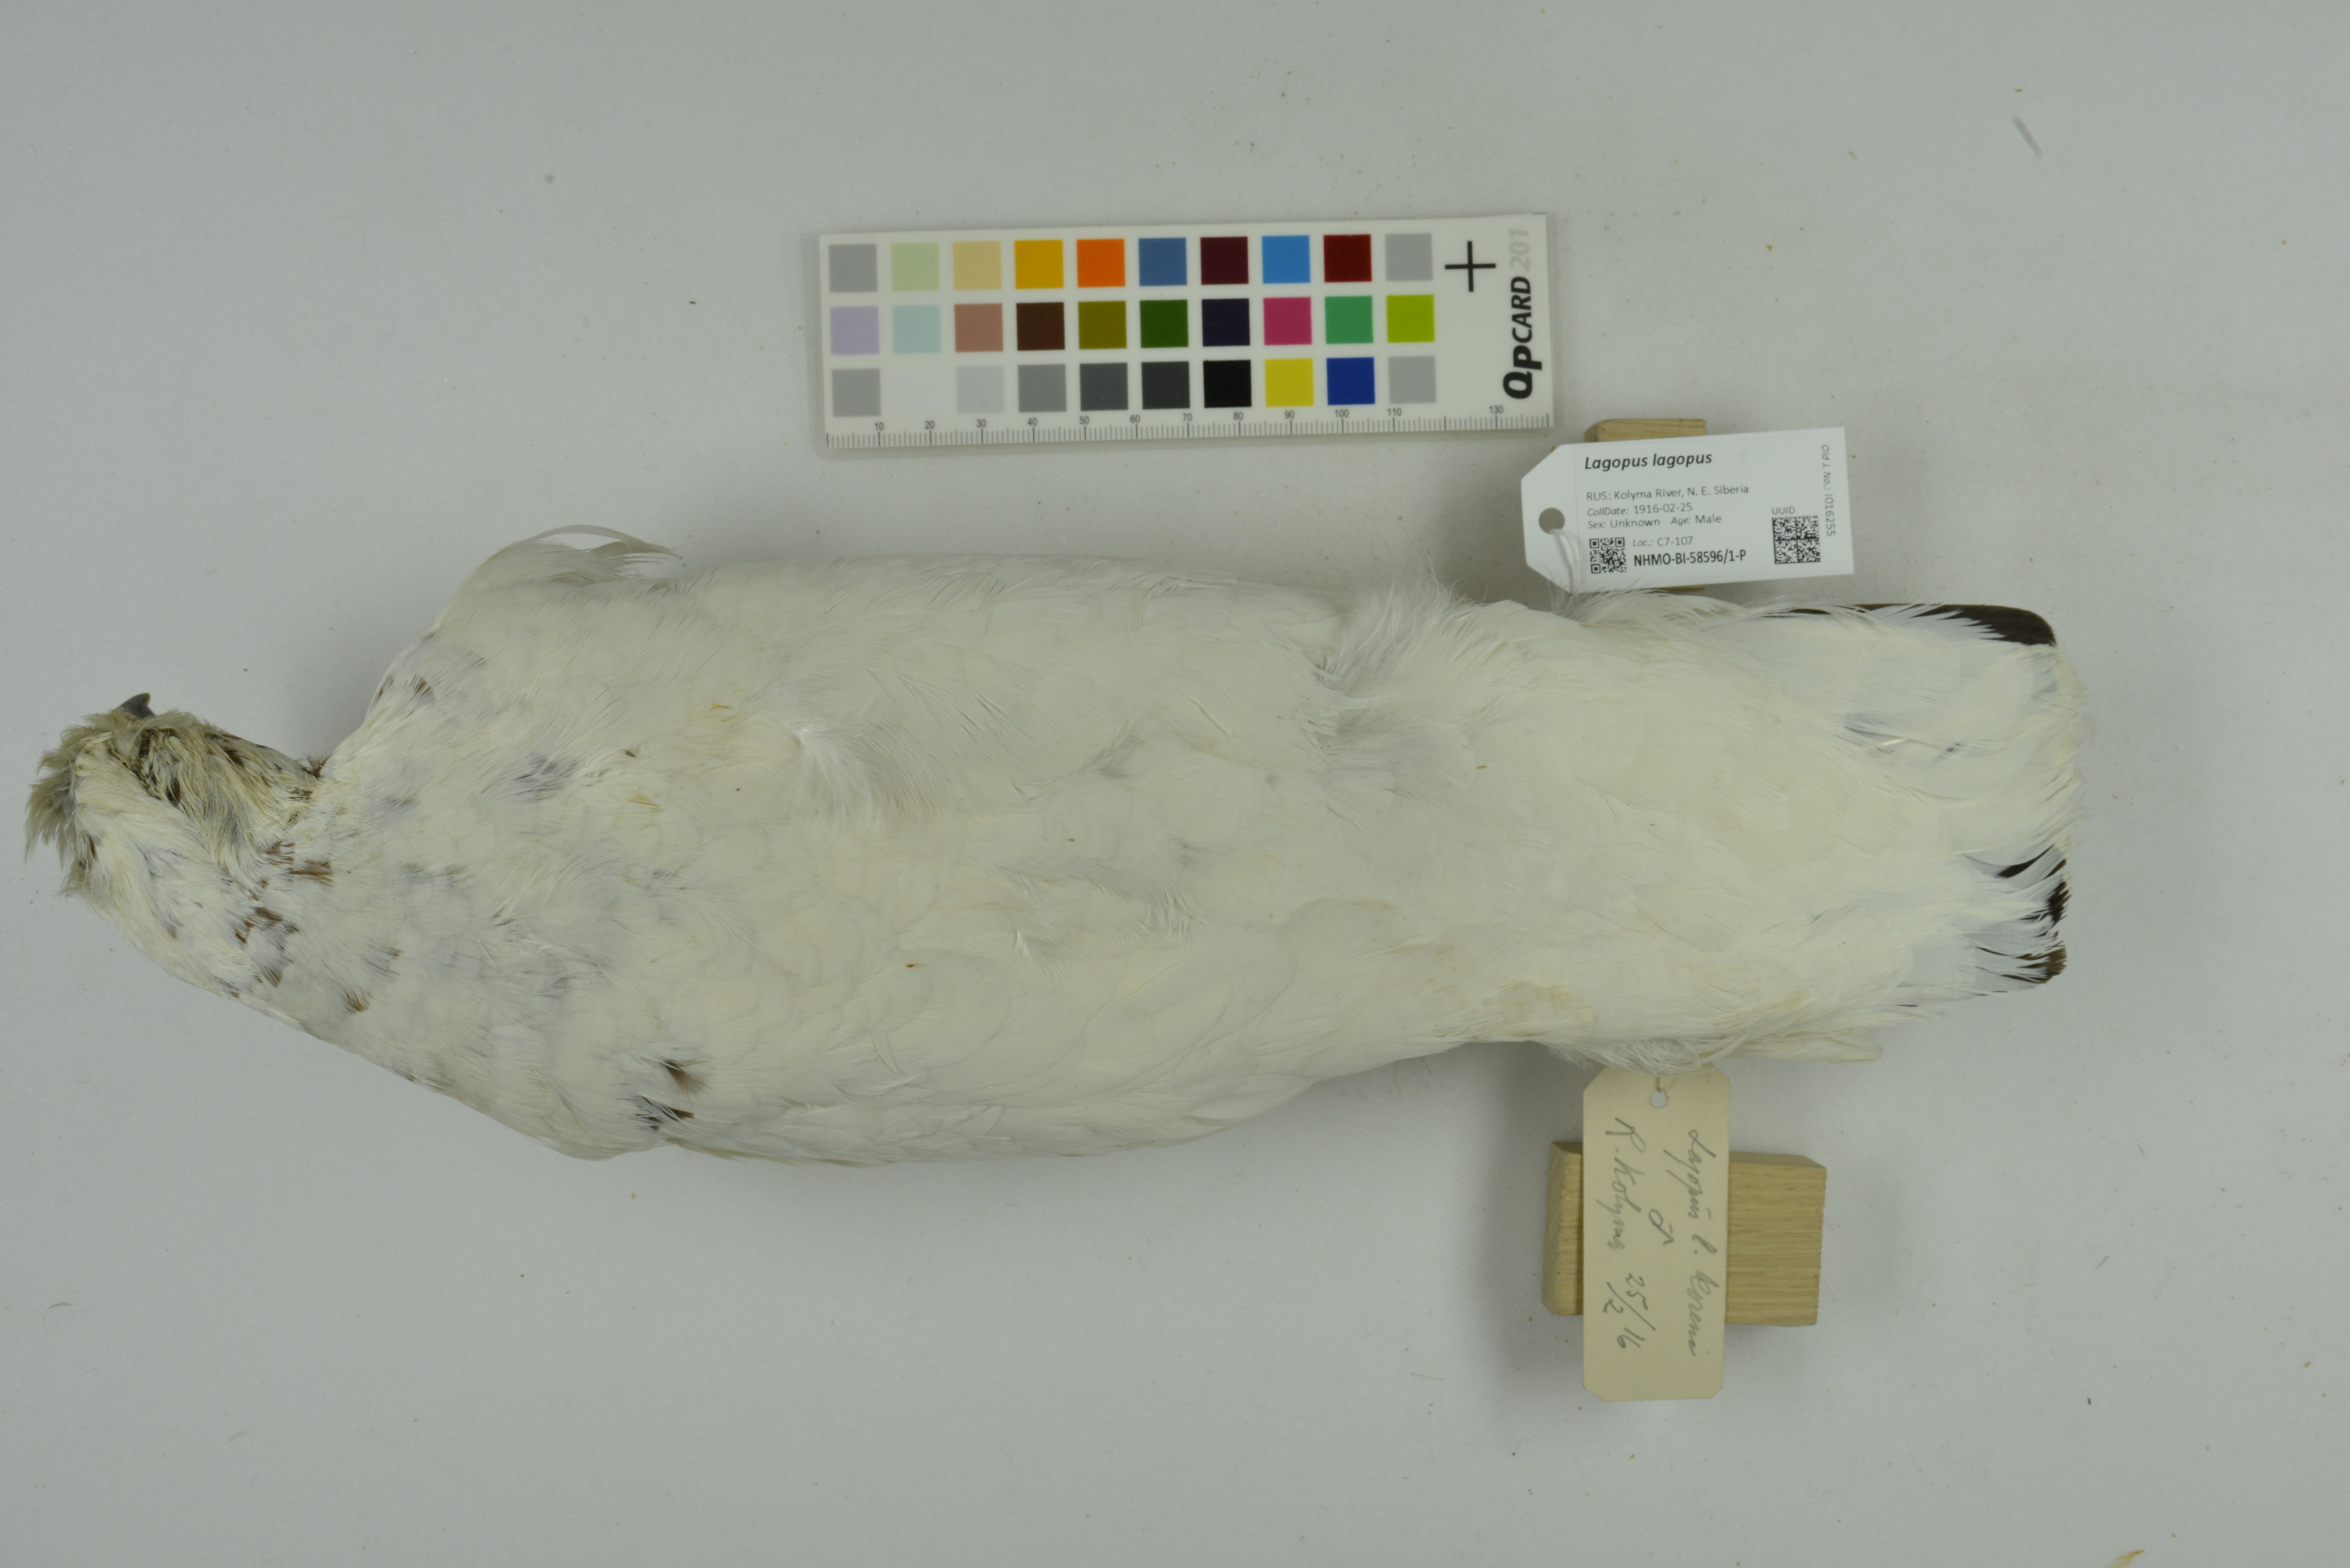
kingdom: Animalia
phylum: Chordata
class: Aves
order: Galliformes
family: Phasianidae
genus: Lagopus
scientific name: Lagopus lagopus
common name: Willow ptarmigan
